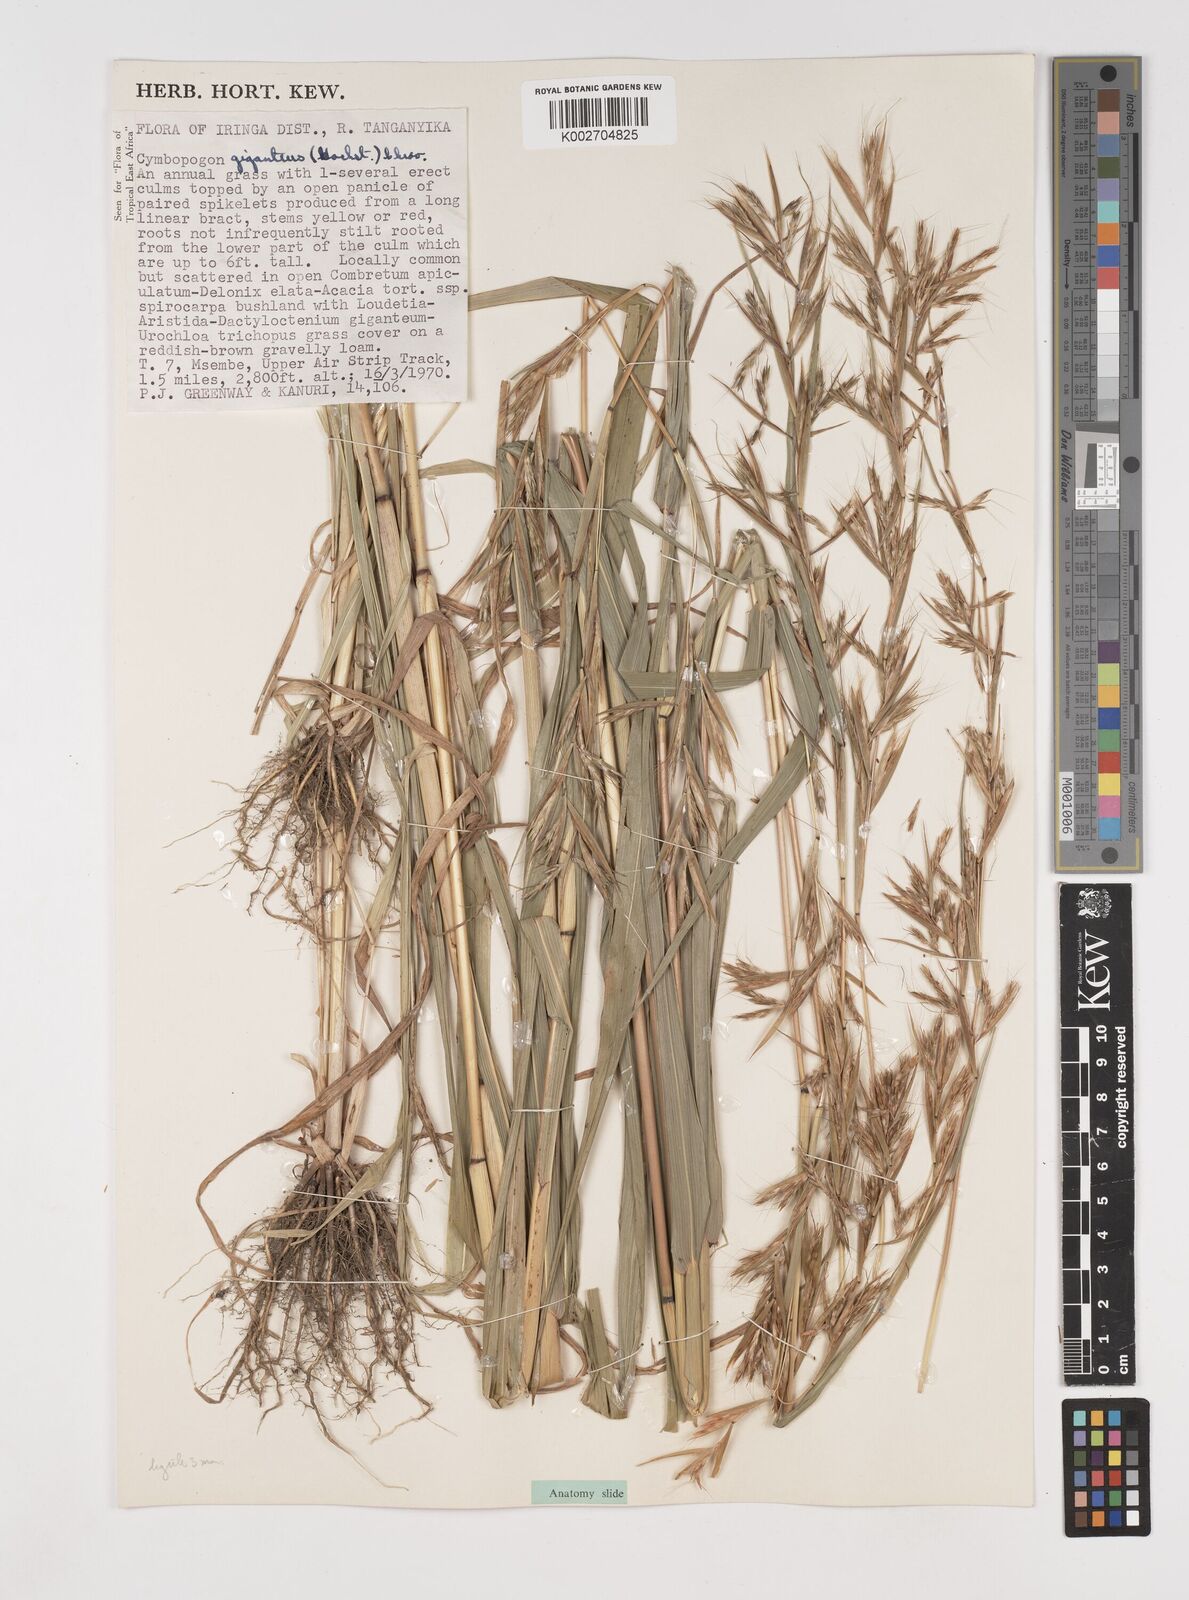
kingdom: Plantae
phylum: Tracheophyta
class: Liliopsida
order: Poales
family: Poaceae
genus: Cymbopogon
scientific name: Cymbopogon giganteus
